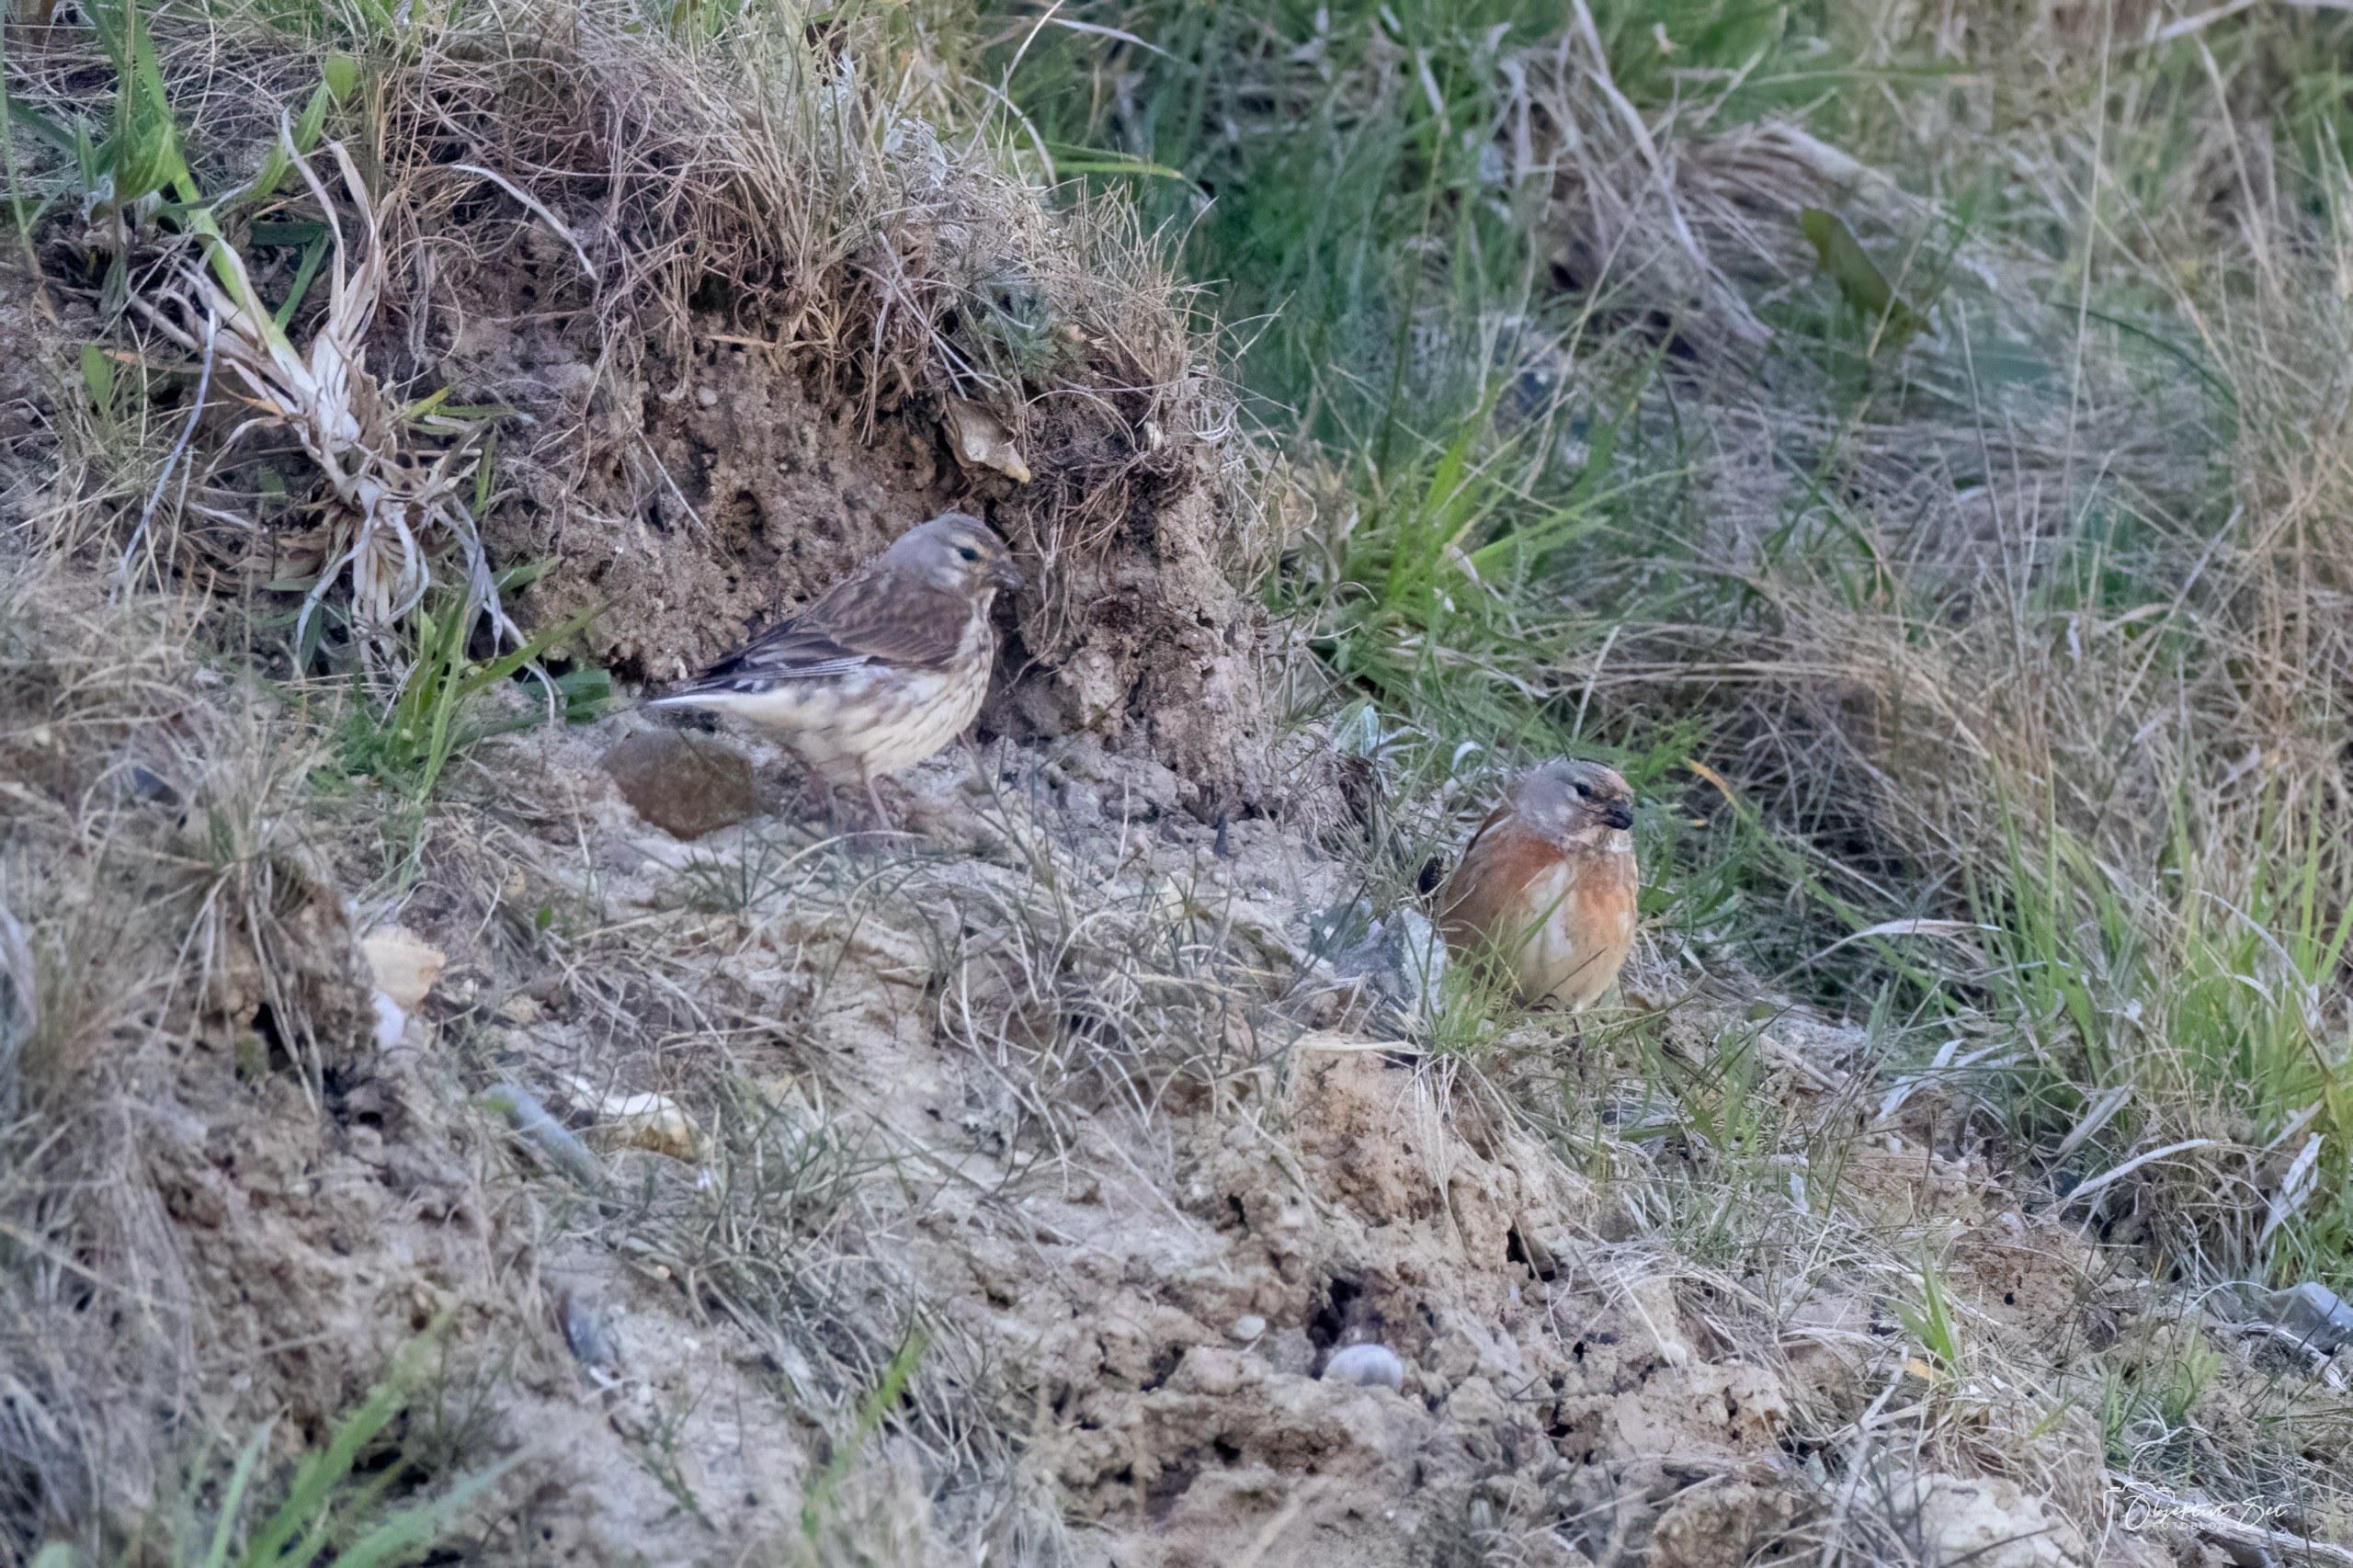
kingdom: Animalia
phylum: Chordata
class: Aves
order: Passeriformes
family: Fringillidae
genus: Linaria
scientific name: Linaria cannabina
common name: Tornirisk
